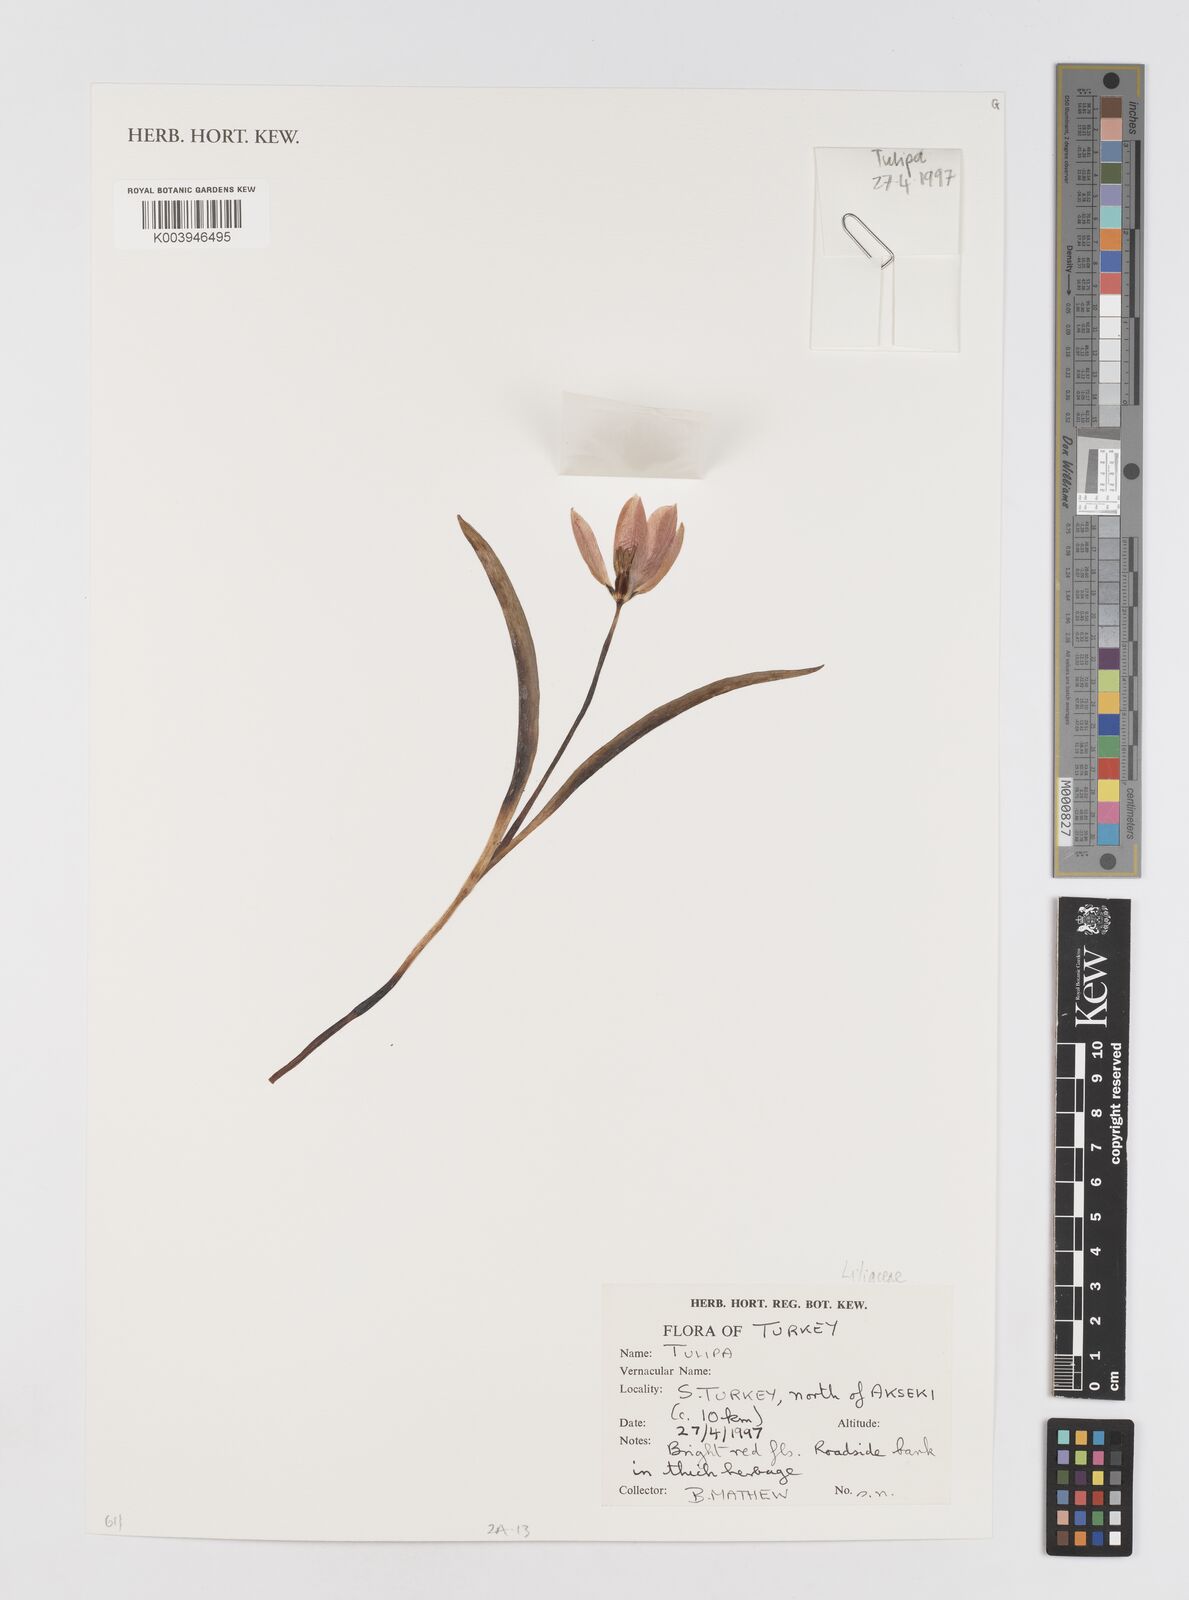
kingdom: Plantae
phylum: Tracheophyta
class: Liliopsida
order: Liliales
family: Liliaceae
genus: Tulipa
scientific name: Tulipa
